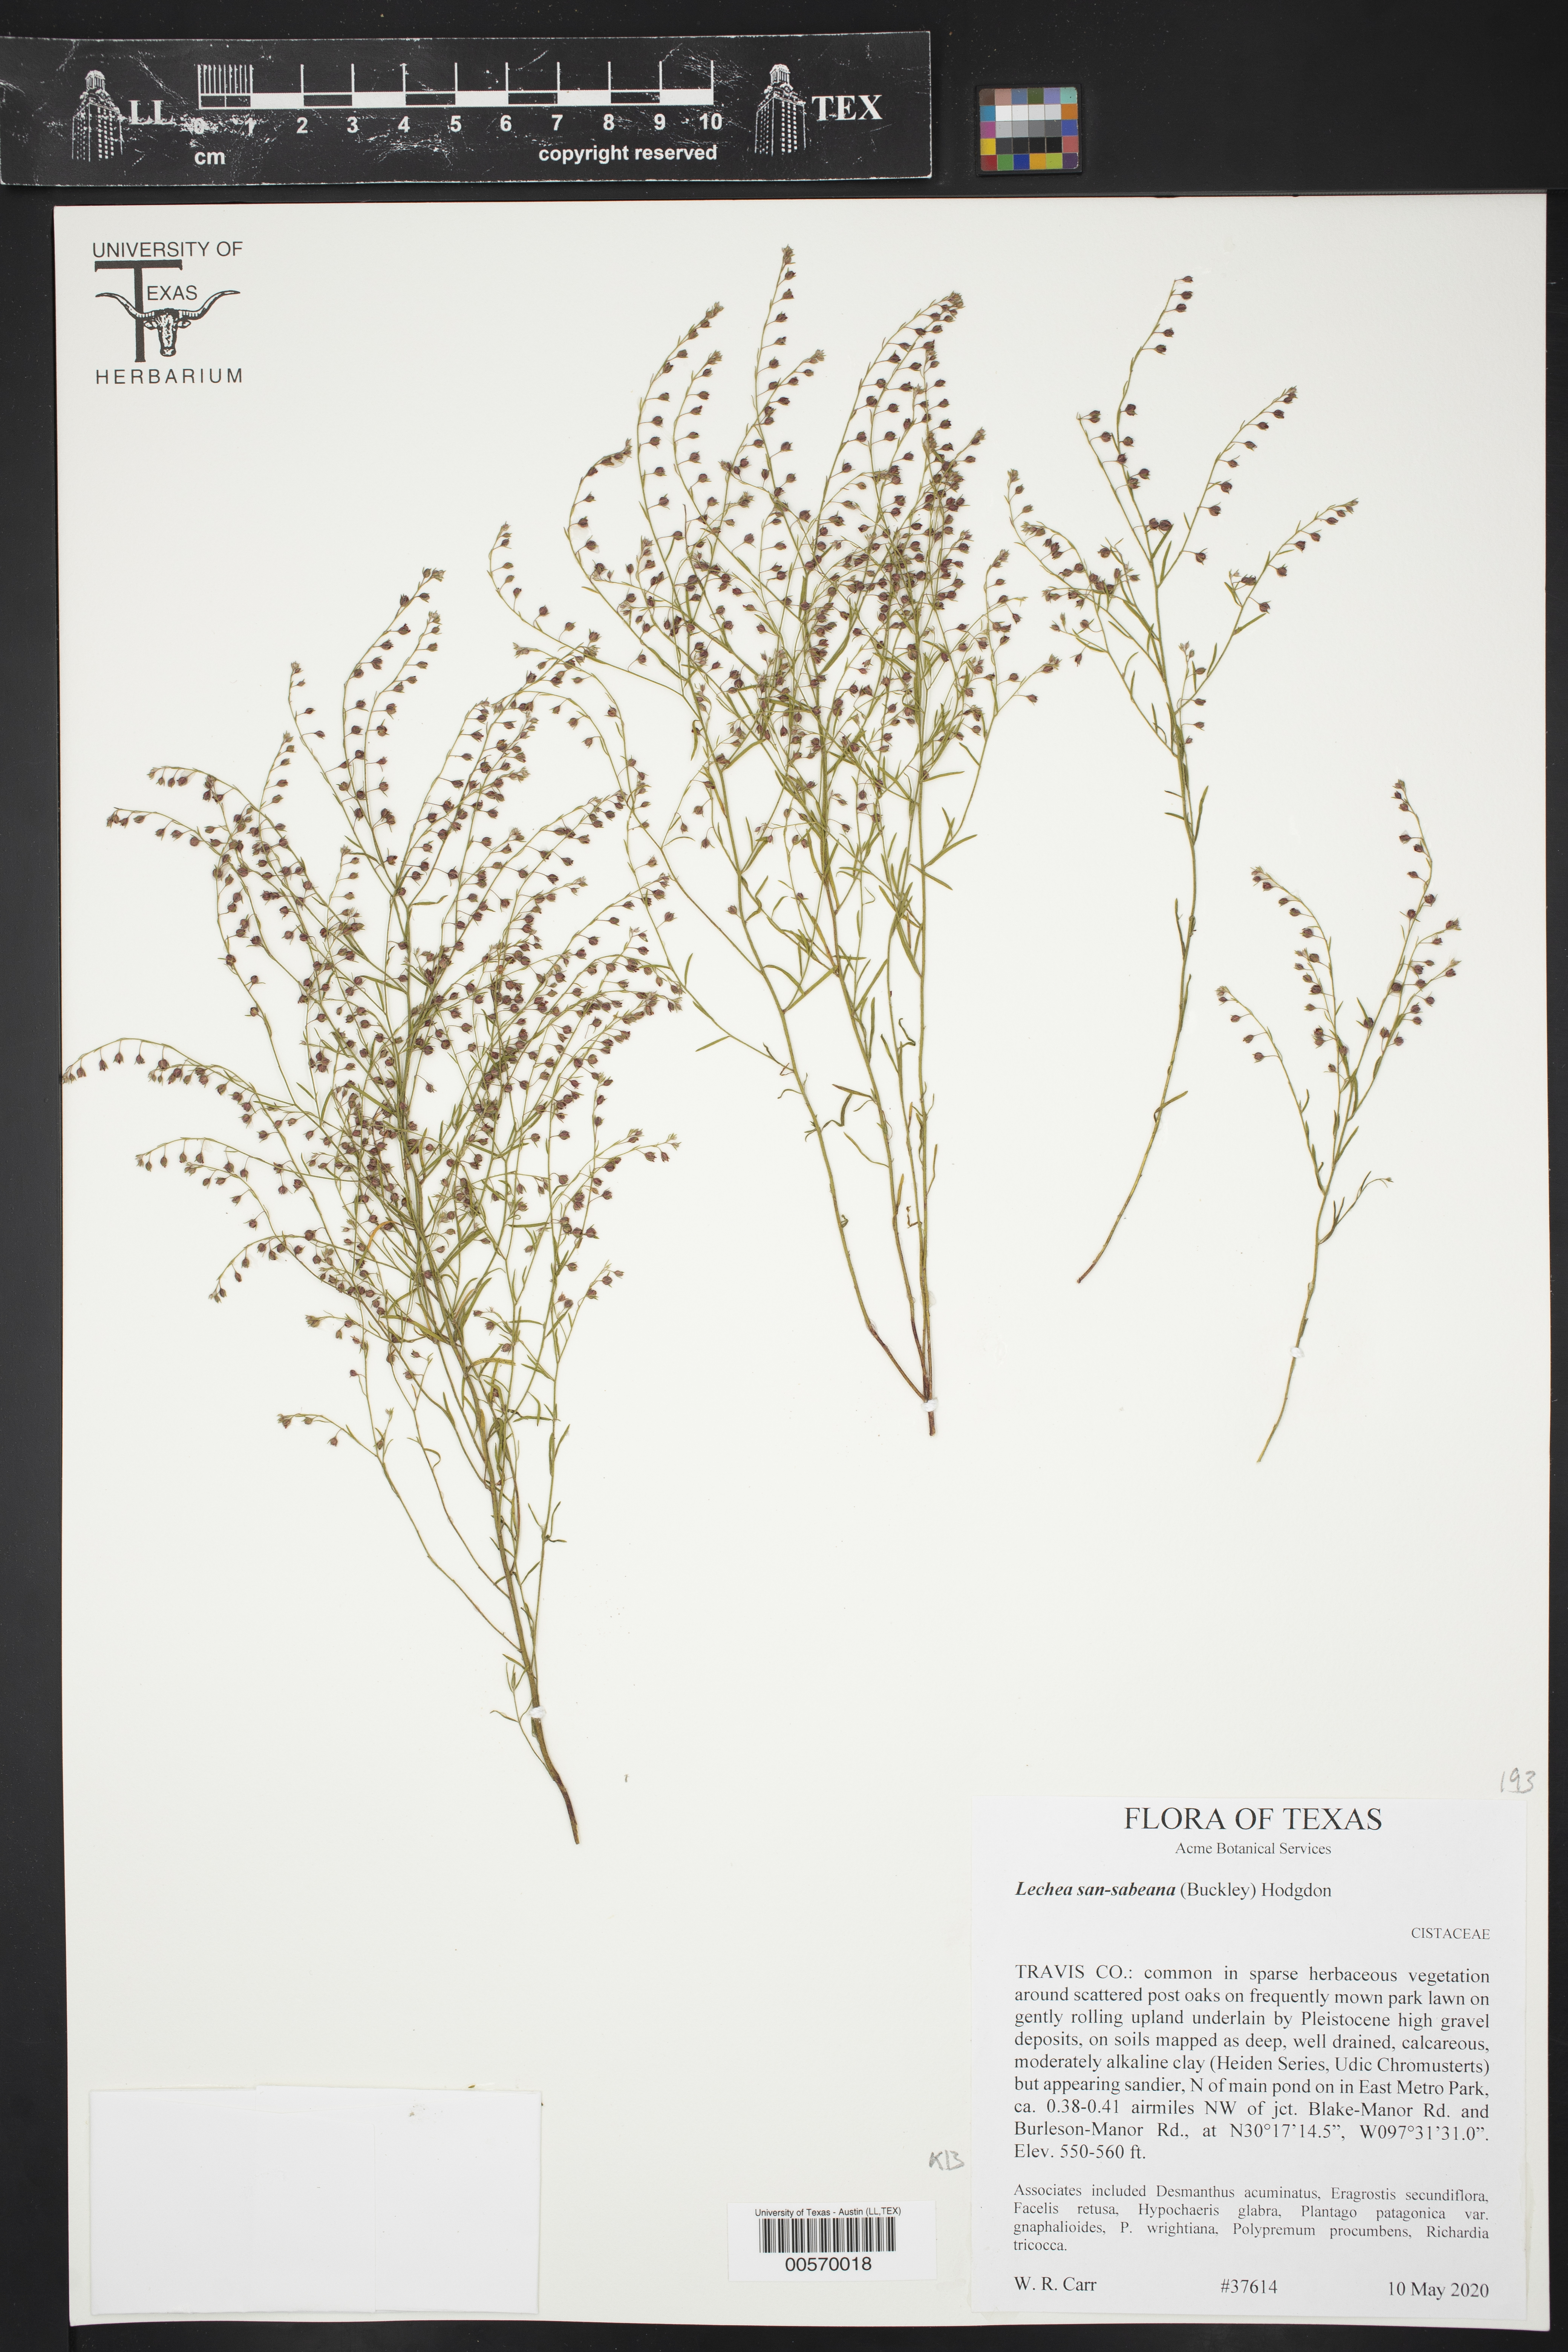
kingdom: Plantae
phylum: Tracheophyta
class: Magnoliopsida
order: Malvales
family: Cistaceae
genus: Lechea
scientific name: Lechea san-sabeana
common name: San saba pinweed
